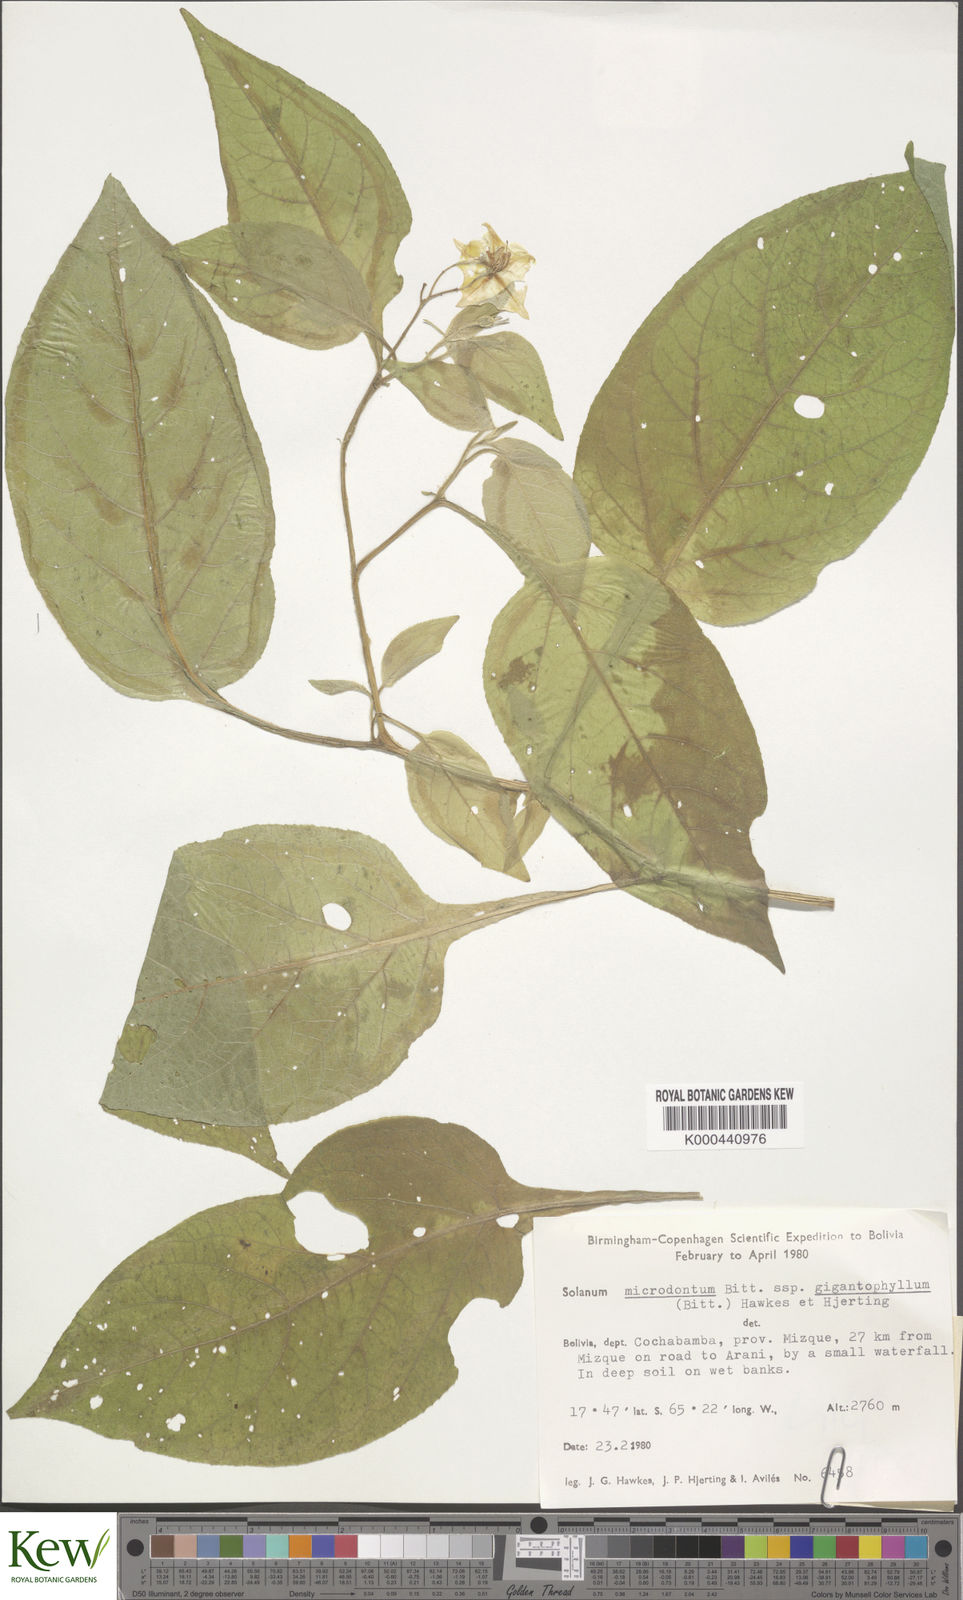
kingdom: Plantae
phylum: Tracheophyta
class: Magnoliopsida
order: Solanales
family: Solanaceae
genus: Solanum
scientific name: Solanum microdontum
